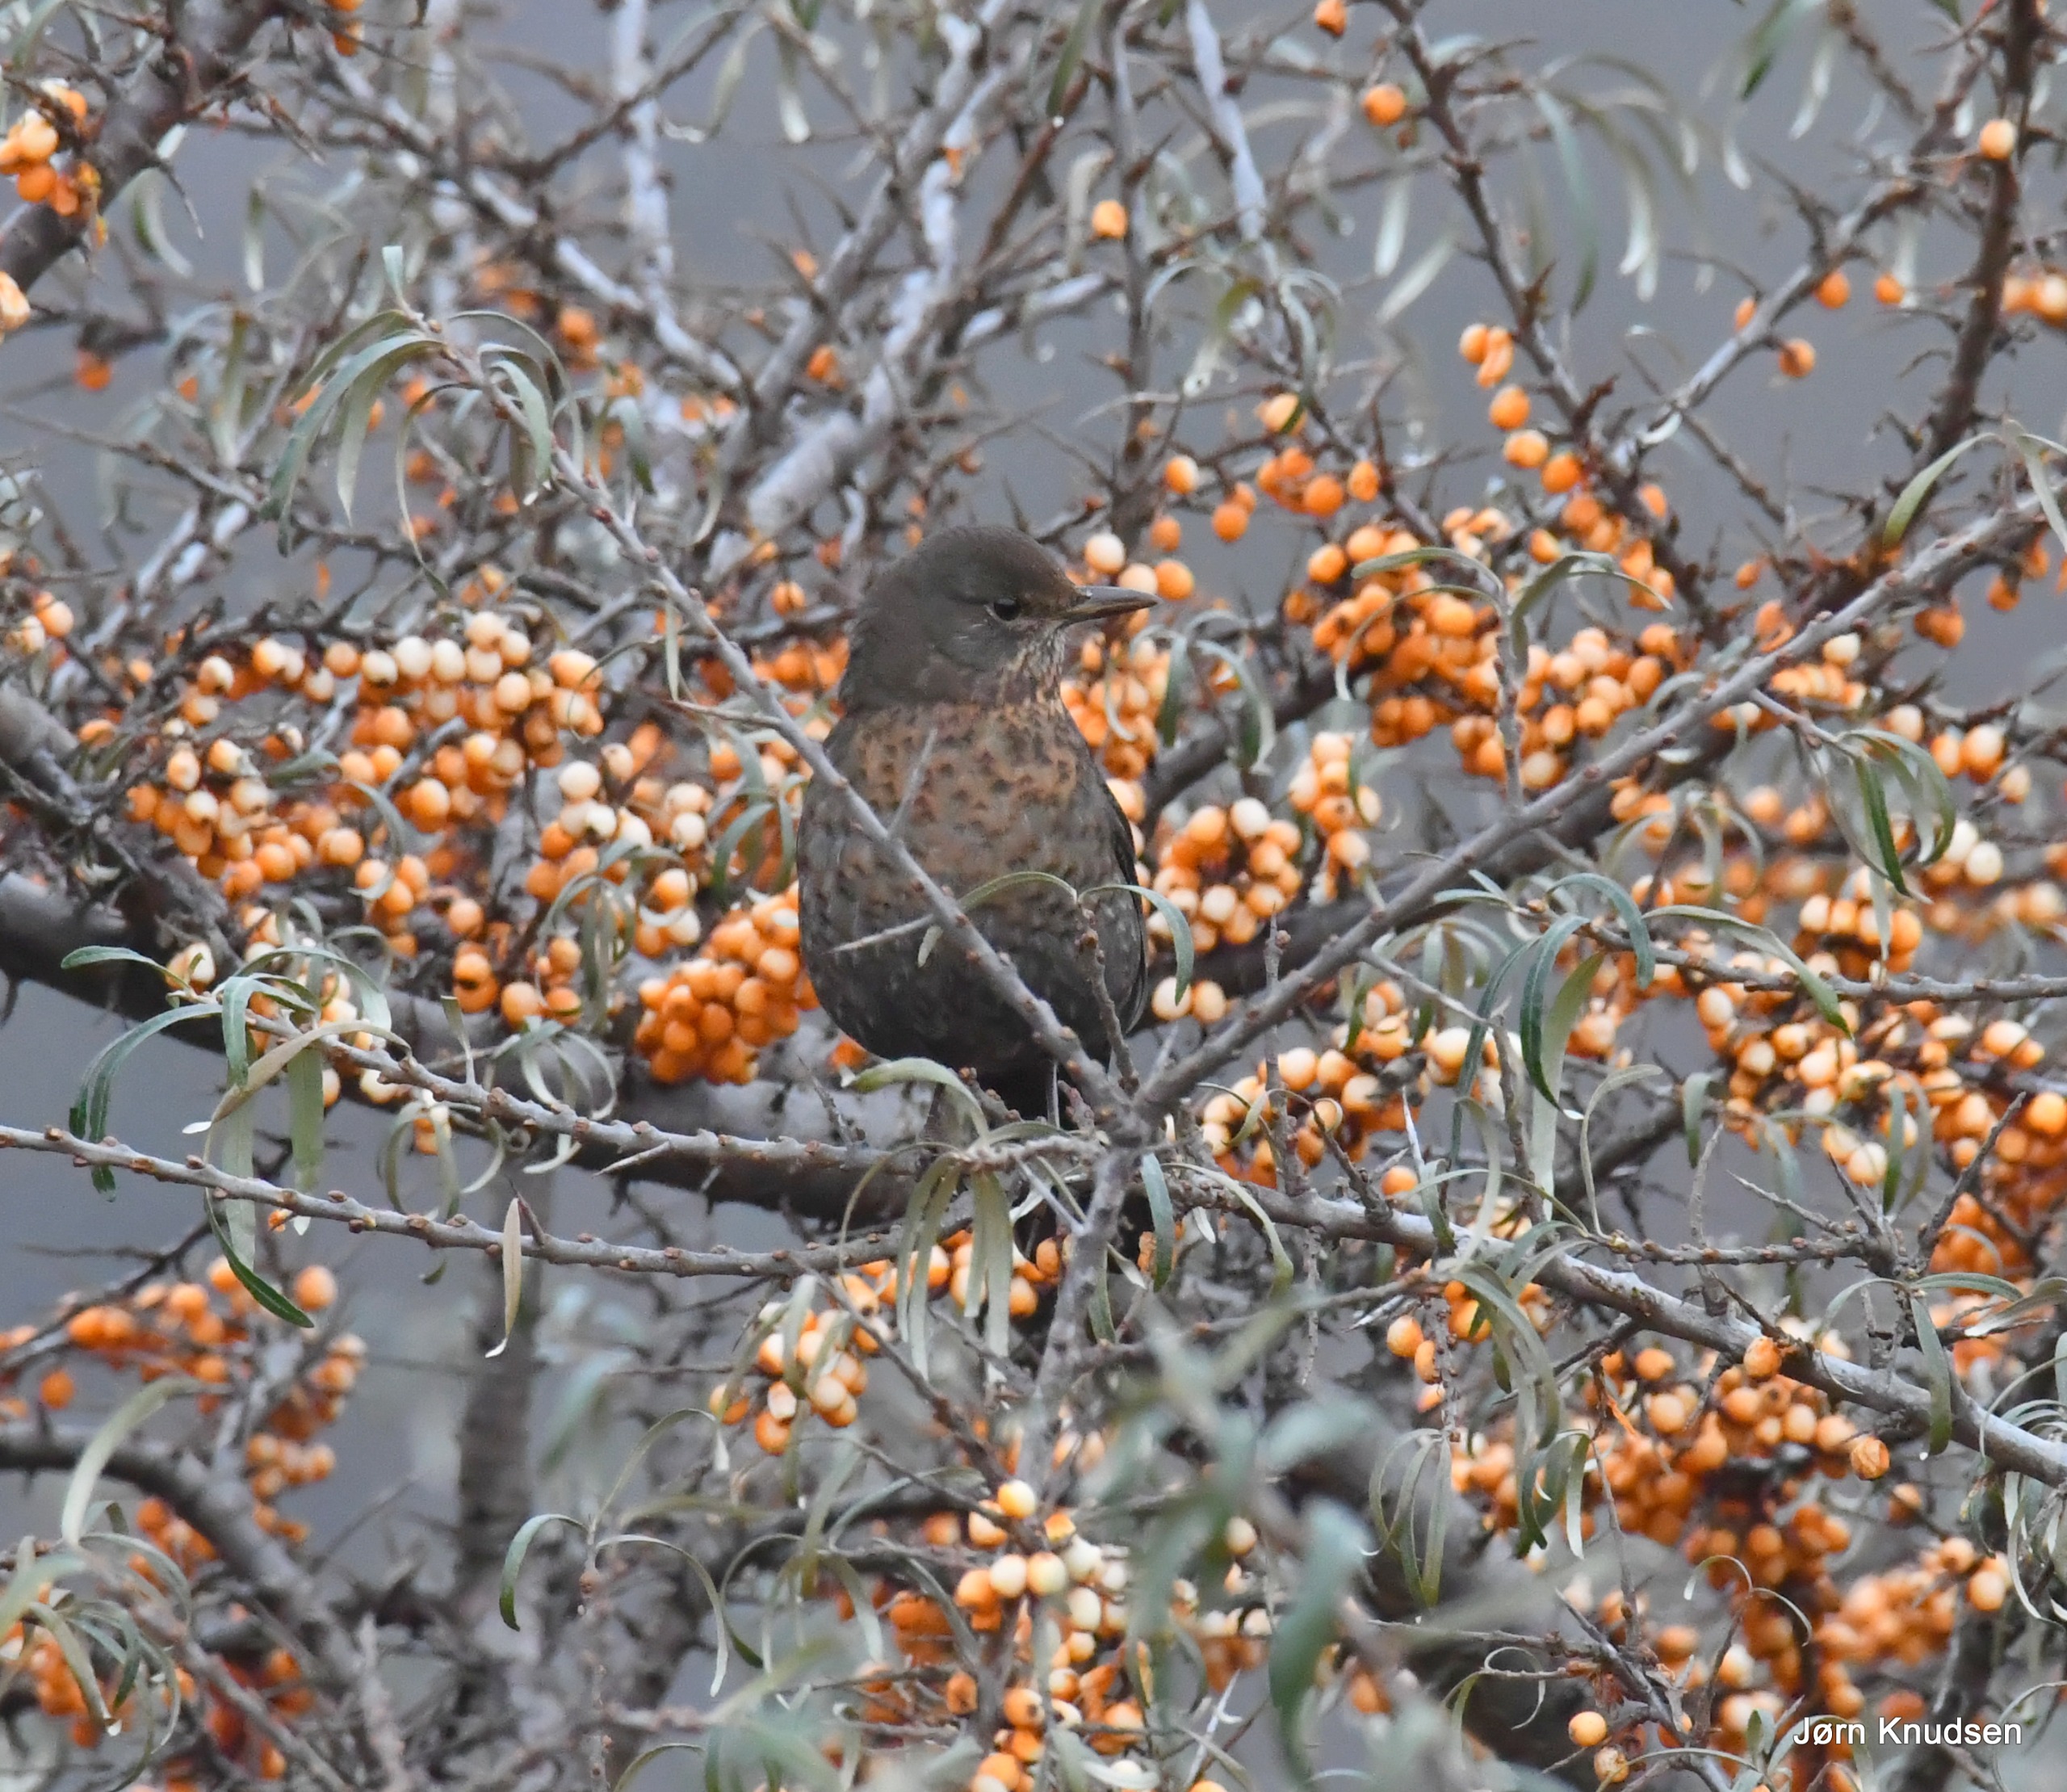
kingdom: Animalia
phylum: Chordata
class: Aves
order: Passeriformes
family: Turdidae
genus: Turdus
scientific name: Turdus merula
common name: Solsort
